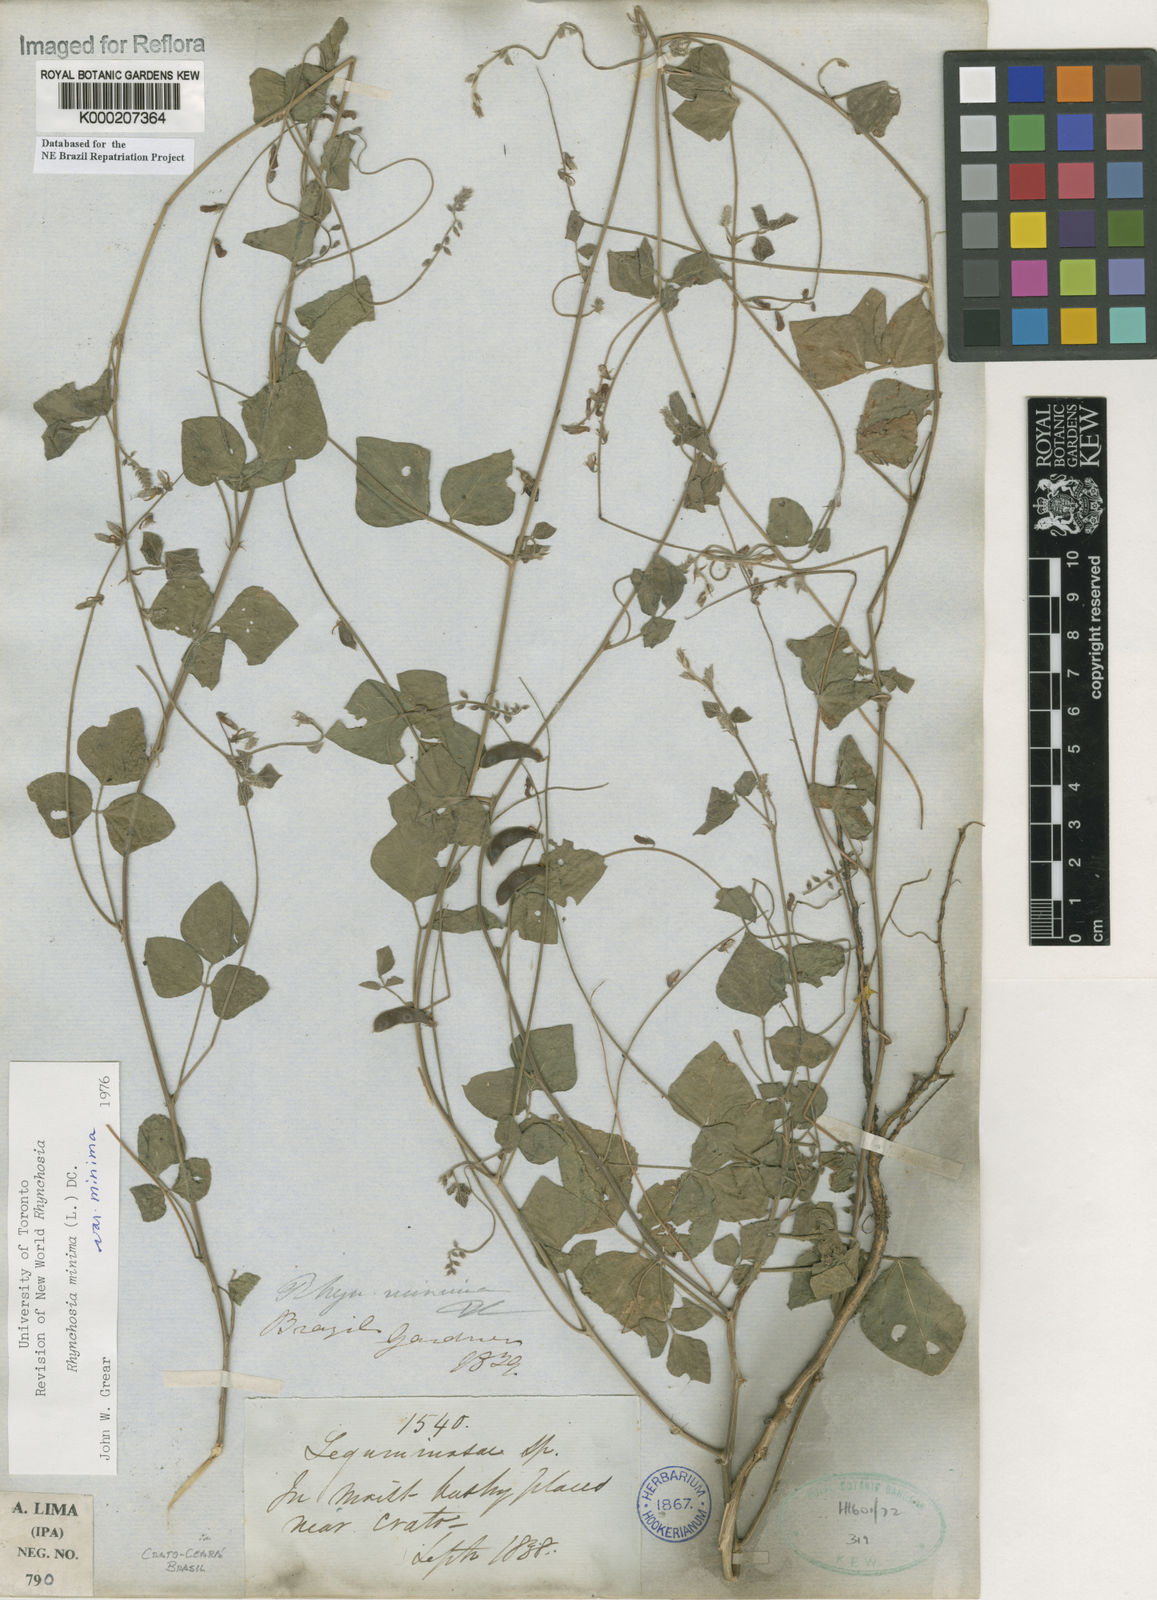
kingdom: Plantae
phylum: Tracheophyta
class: Magnoliopsida
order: Fabales
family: Fabaceae
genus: Rhynchosia
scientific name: Rhynchosia minima
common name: Least snoutbean
